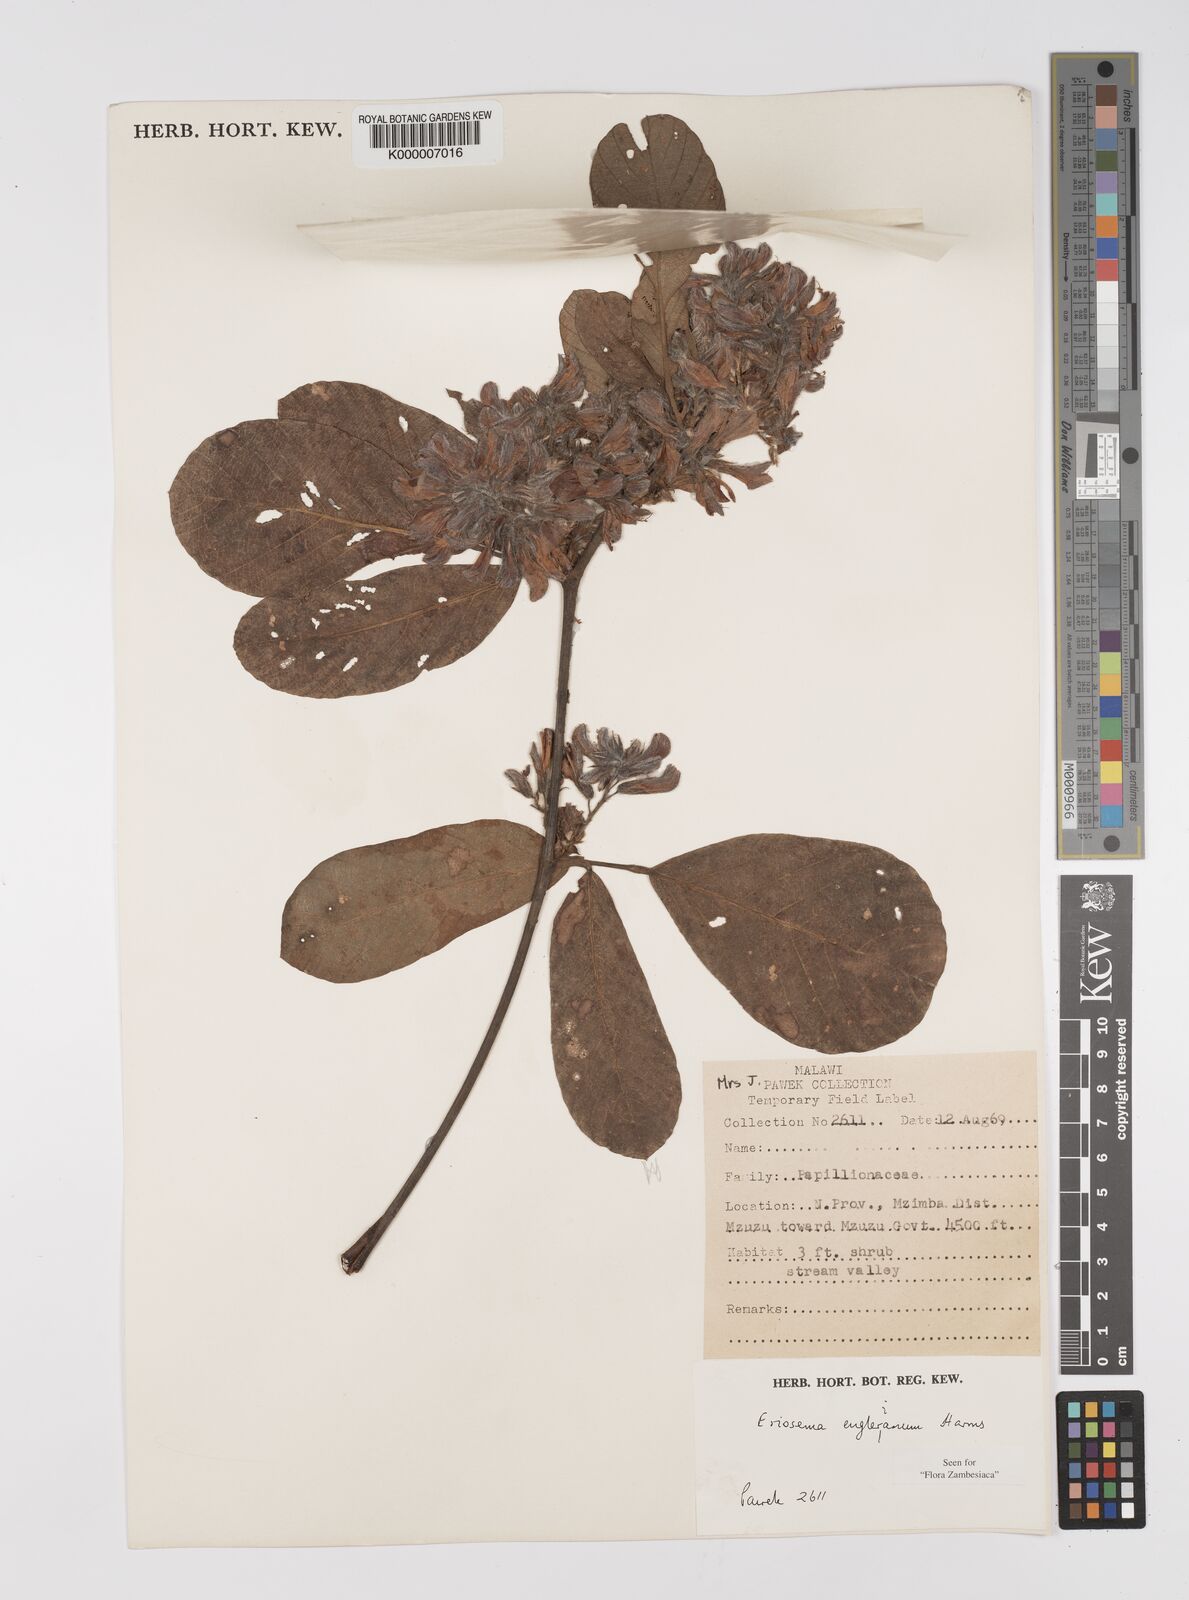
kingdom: Plantae
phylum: Tracheophyta
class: Magnoliopsida
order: Fabales
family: Fabaceae
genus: Eriosema
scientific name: Eriosema englerianum
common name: Blue bush
